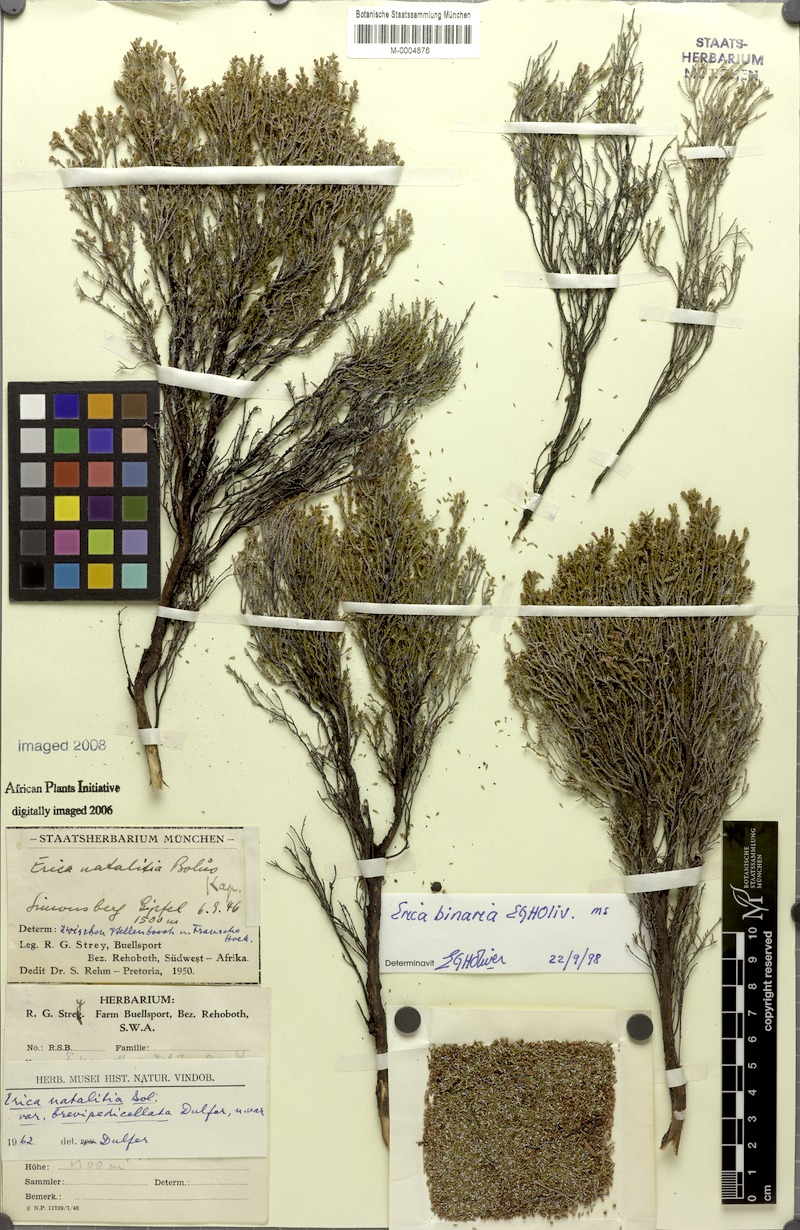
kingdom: Plantae
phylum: Tracheophyta
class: Magnoliopsida
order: Ericales
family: Ericaceae
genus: Erica
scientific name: Erica binaria
